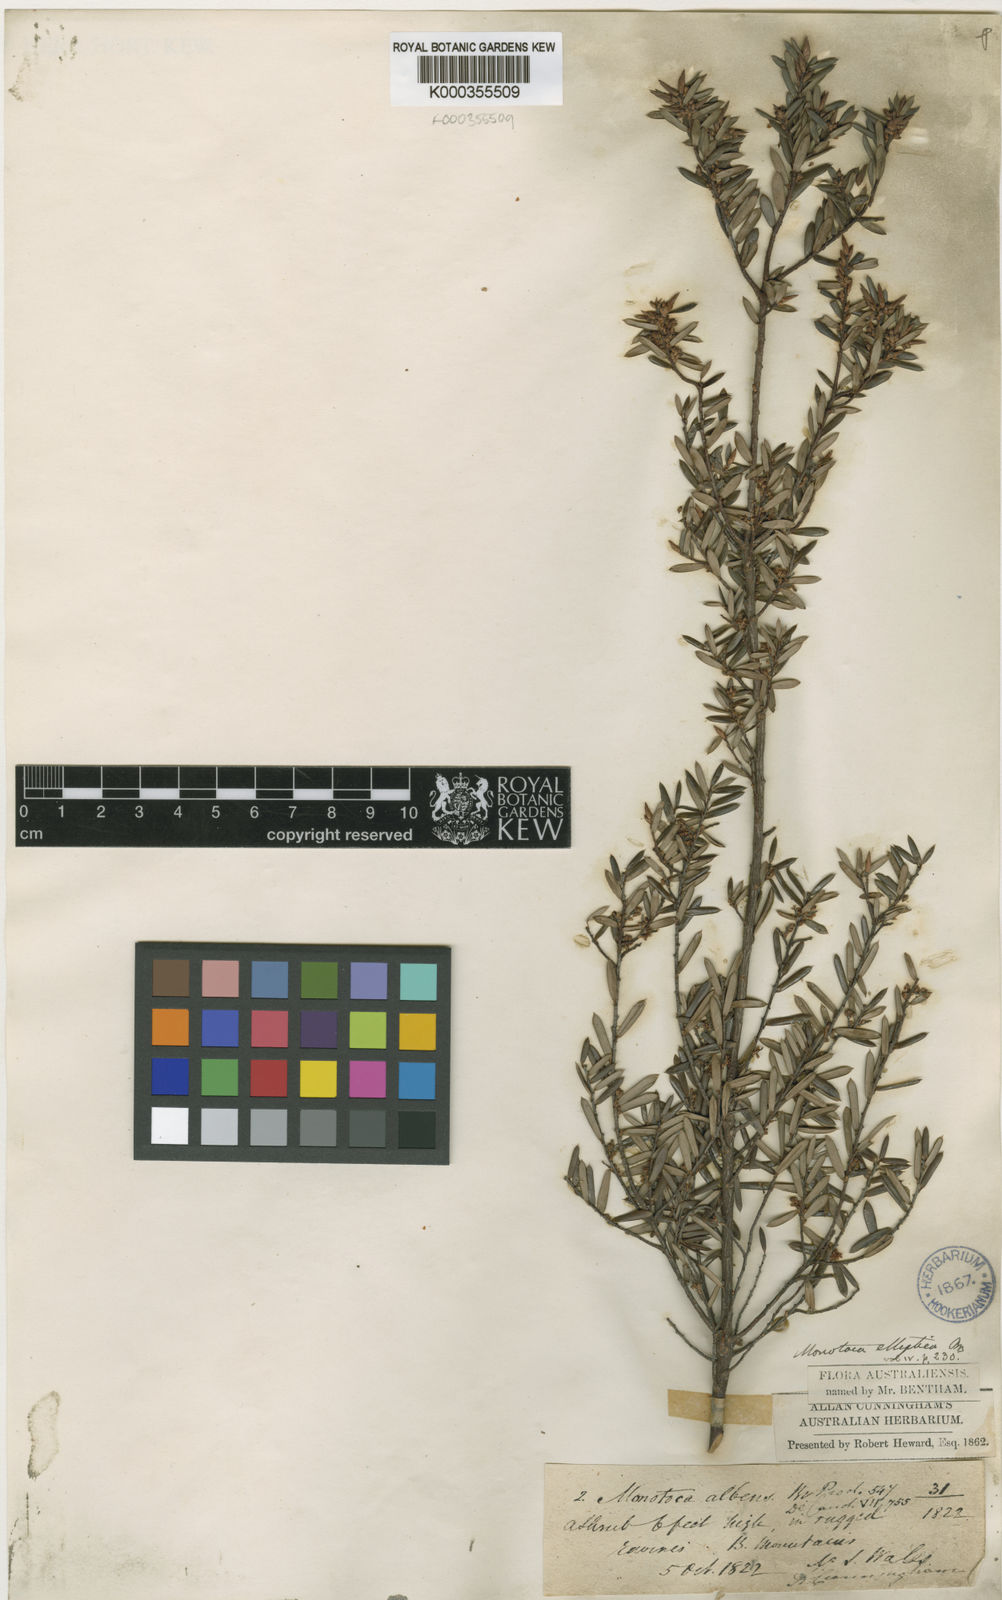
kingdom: Plantae
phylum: Tracheophyta
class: Magnoliopsida
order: Ericales
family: Ericaceae
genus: Monotoca
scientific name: Monotoca elliptica
